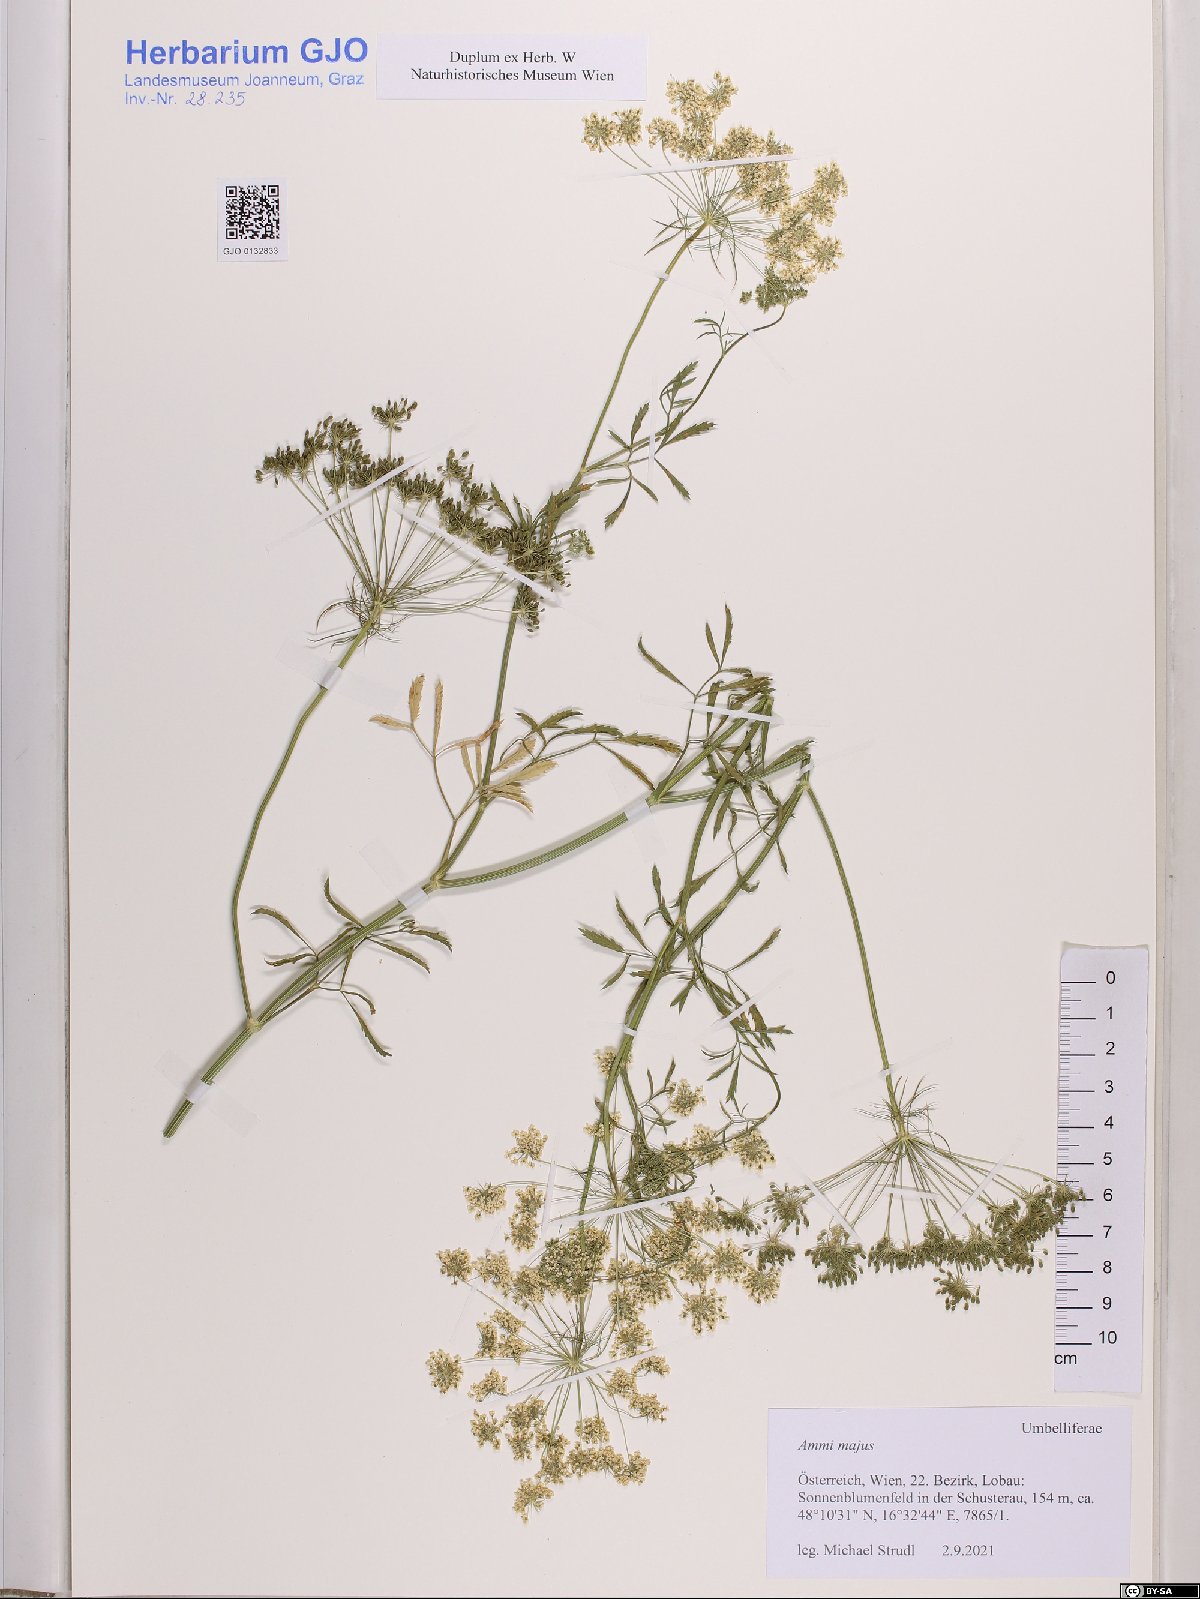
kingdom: Plantae
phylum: Tracheophyta
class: Magnoliopsida
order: Apiales
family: Apiaceae
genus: Ammi
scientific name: Ammi majus
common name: Bullwort
